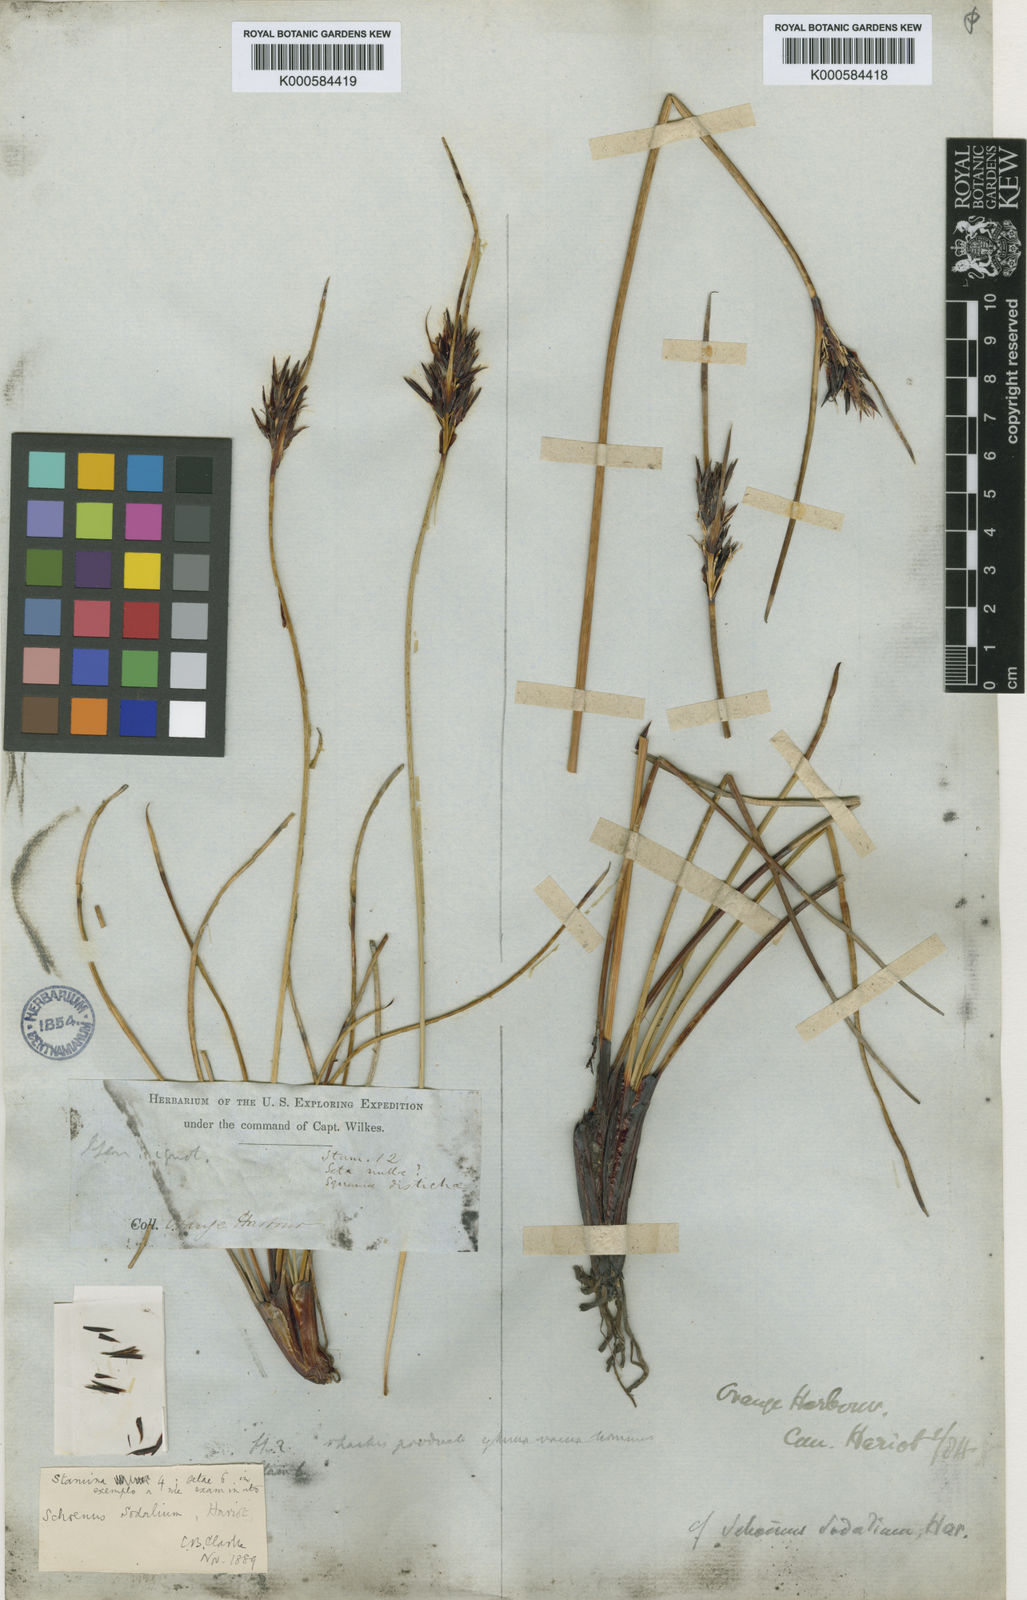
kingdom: Plantae
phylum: Tracheophyta
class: Liliopsida
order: Poales
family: Cyperaceae
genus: Schoenus
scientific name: Schoenus andinus
